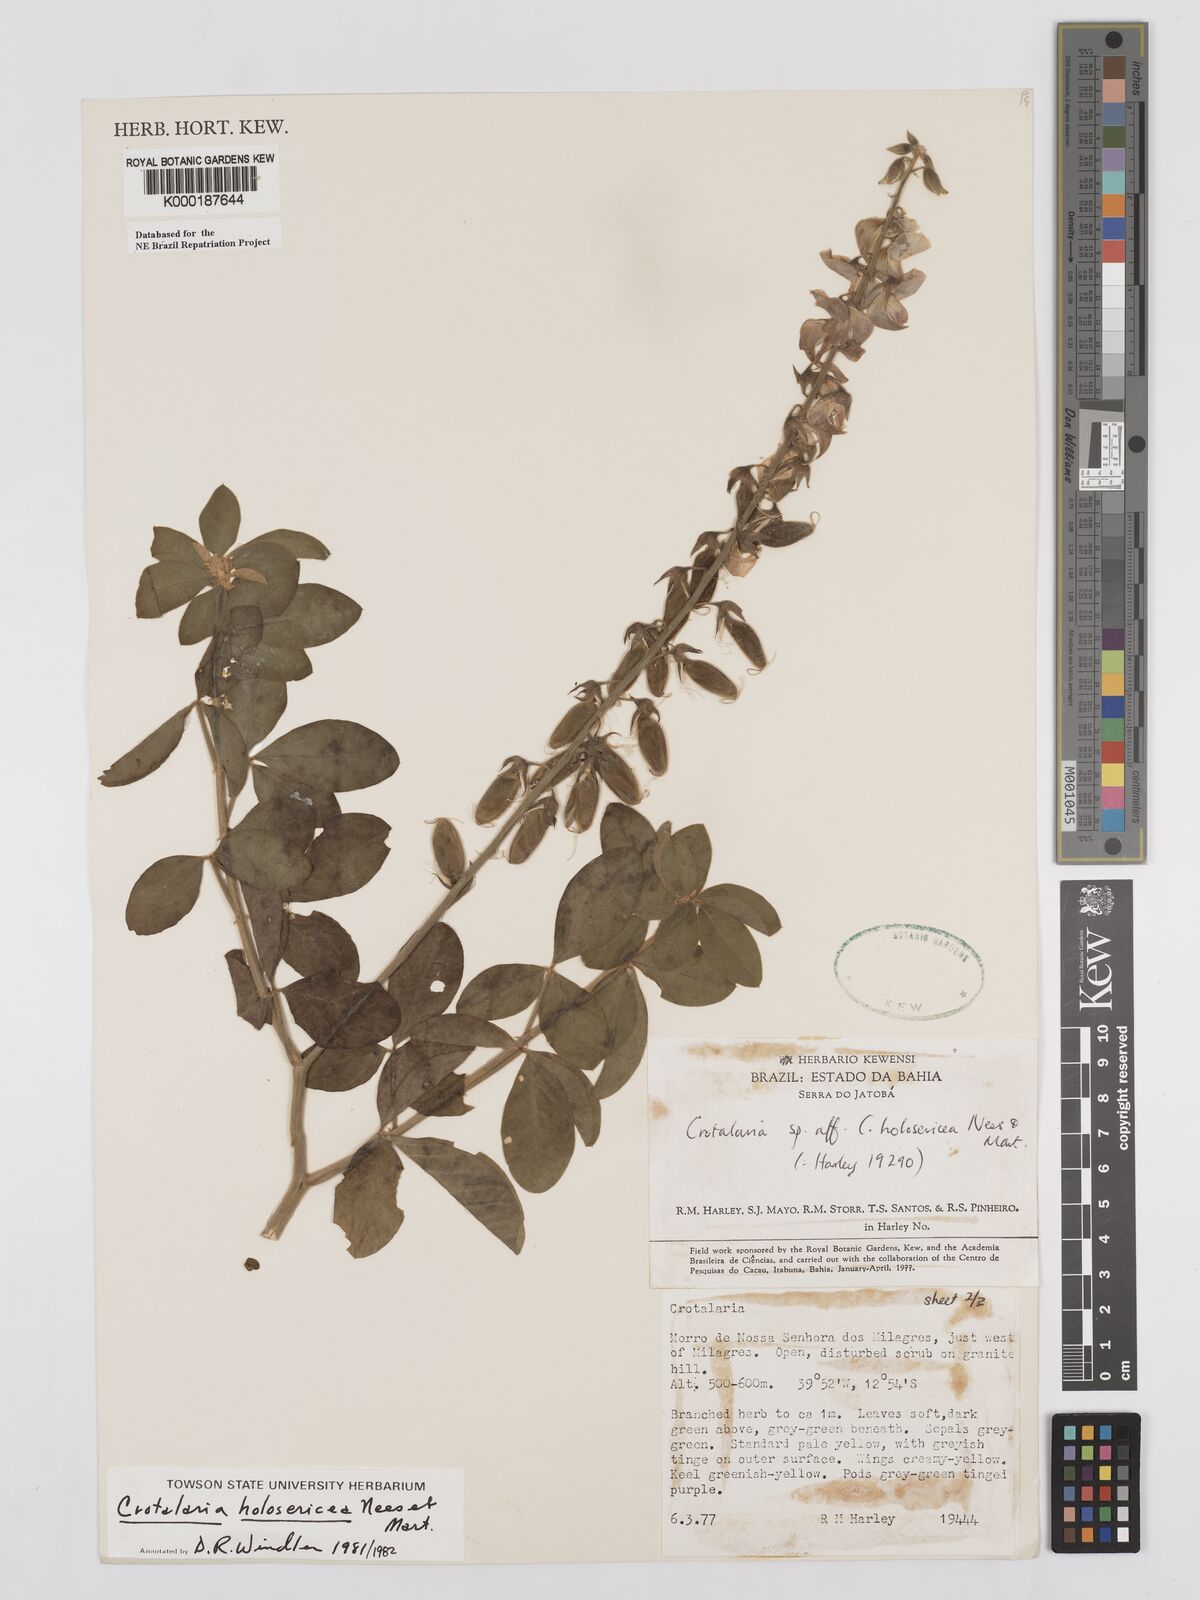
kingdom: Plantae
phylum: Tracheophyta
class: Magnoliopsida
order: Fabales
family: Fabaceae
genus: Crotalaria
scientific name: Crotalaria holosericea
